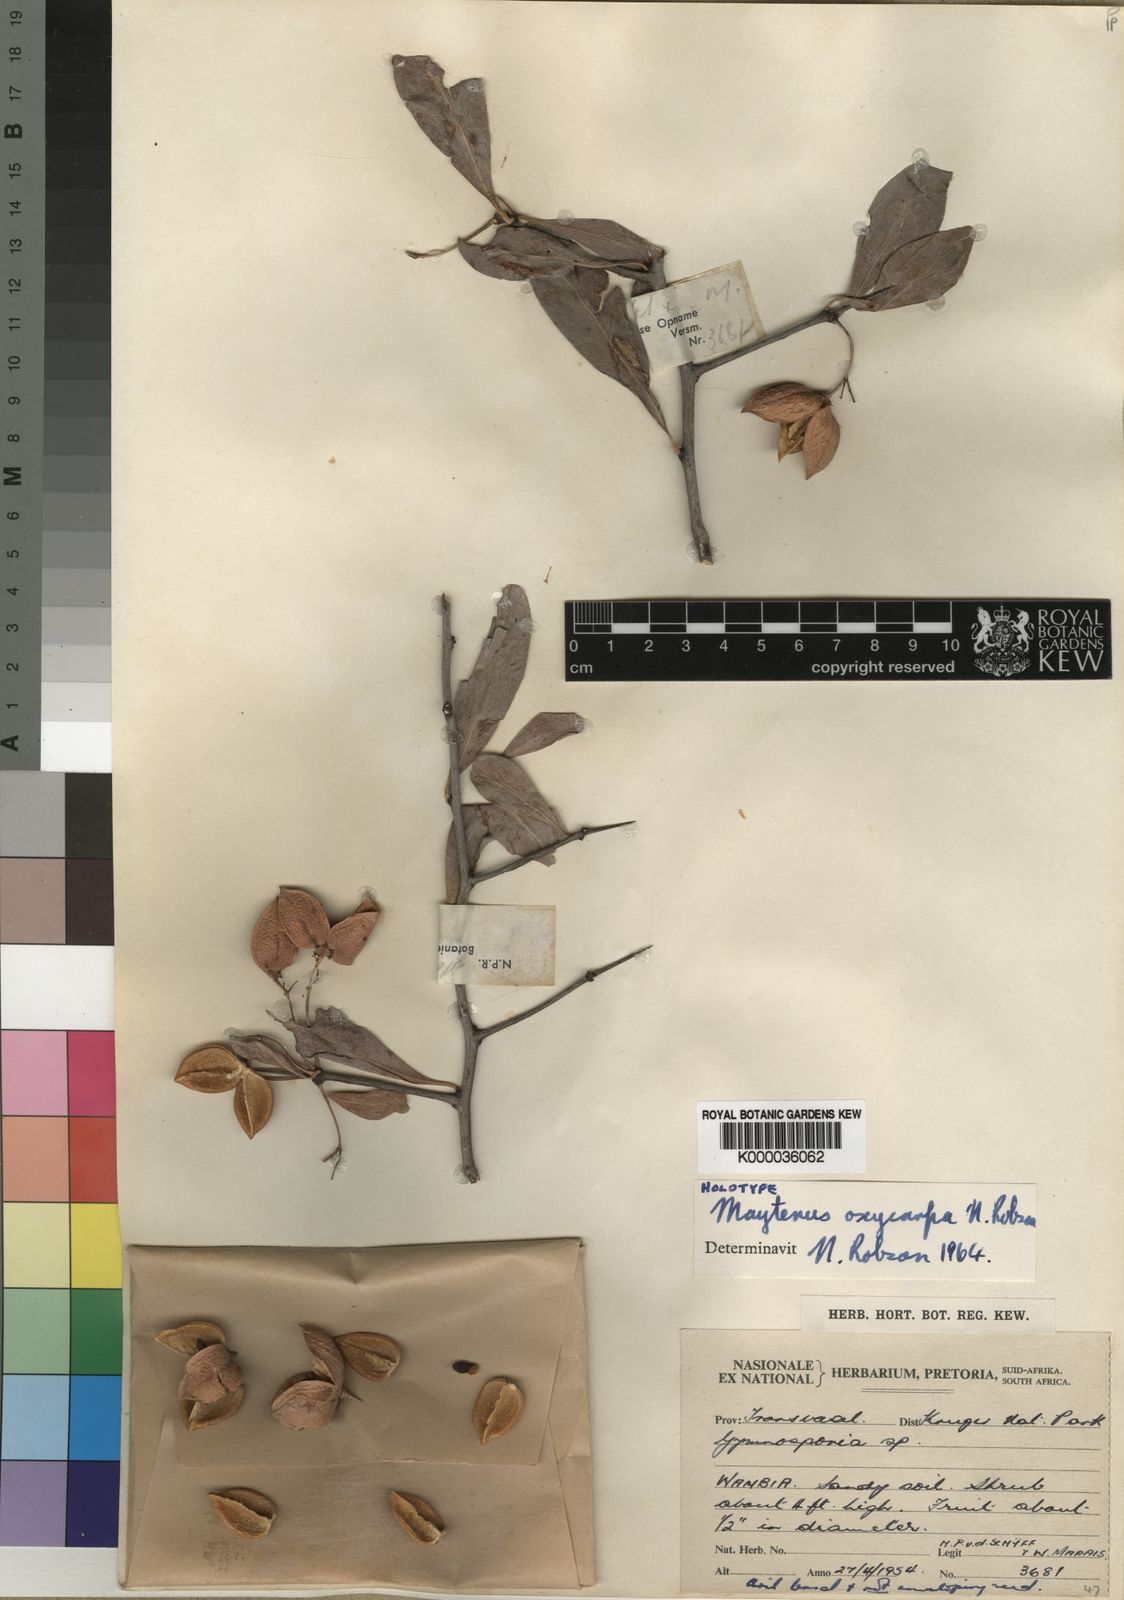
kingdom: Plantae
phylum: Tracheophyta
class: Magnoliopsida
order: Celastrales
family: Celastraceae
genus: Gymnosporia
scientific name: Gymnosporia oxycarpa
